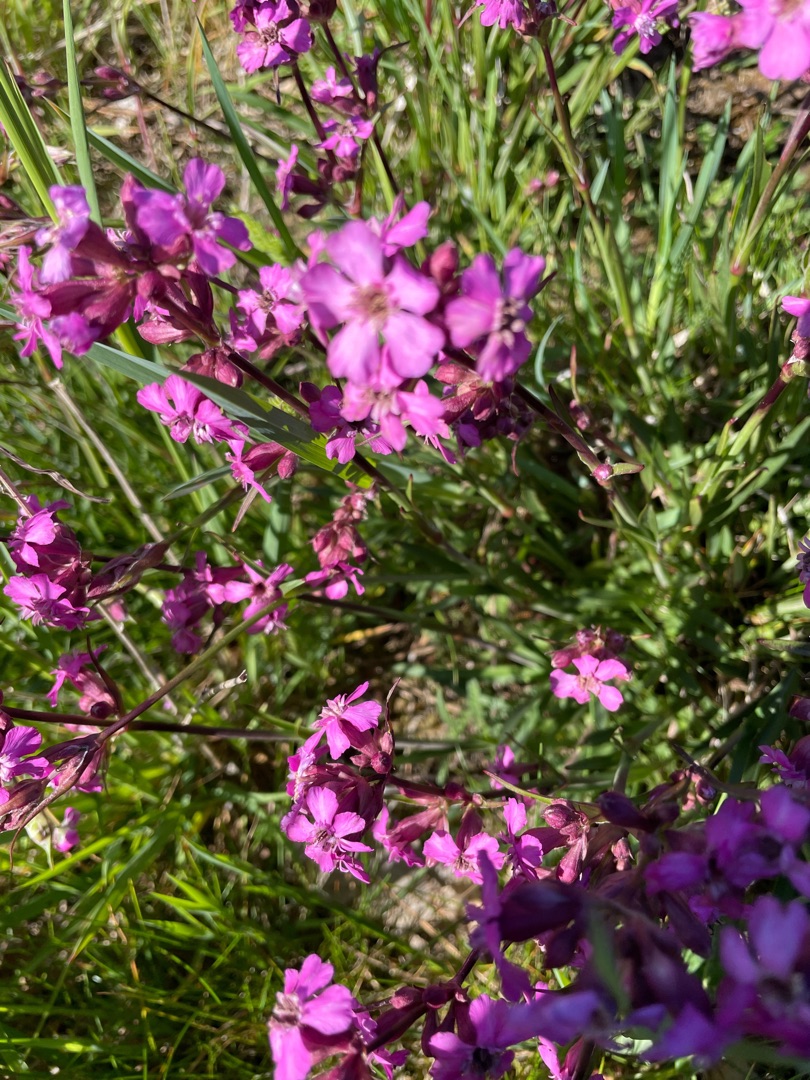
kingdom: Plantae
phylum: Tracheophyta
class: Magnoliopsida
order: Caryophyllales
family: Caryophyllaceae
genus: Viscaria
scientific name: Viscaria vulgaris
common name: Tjærenellike
